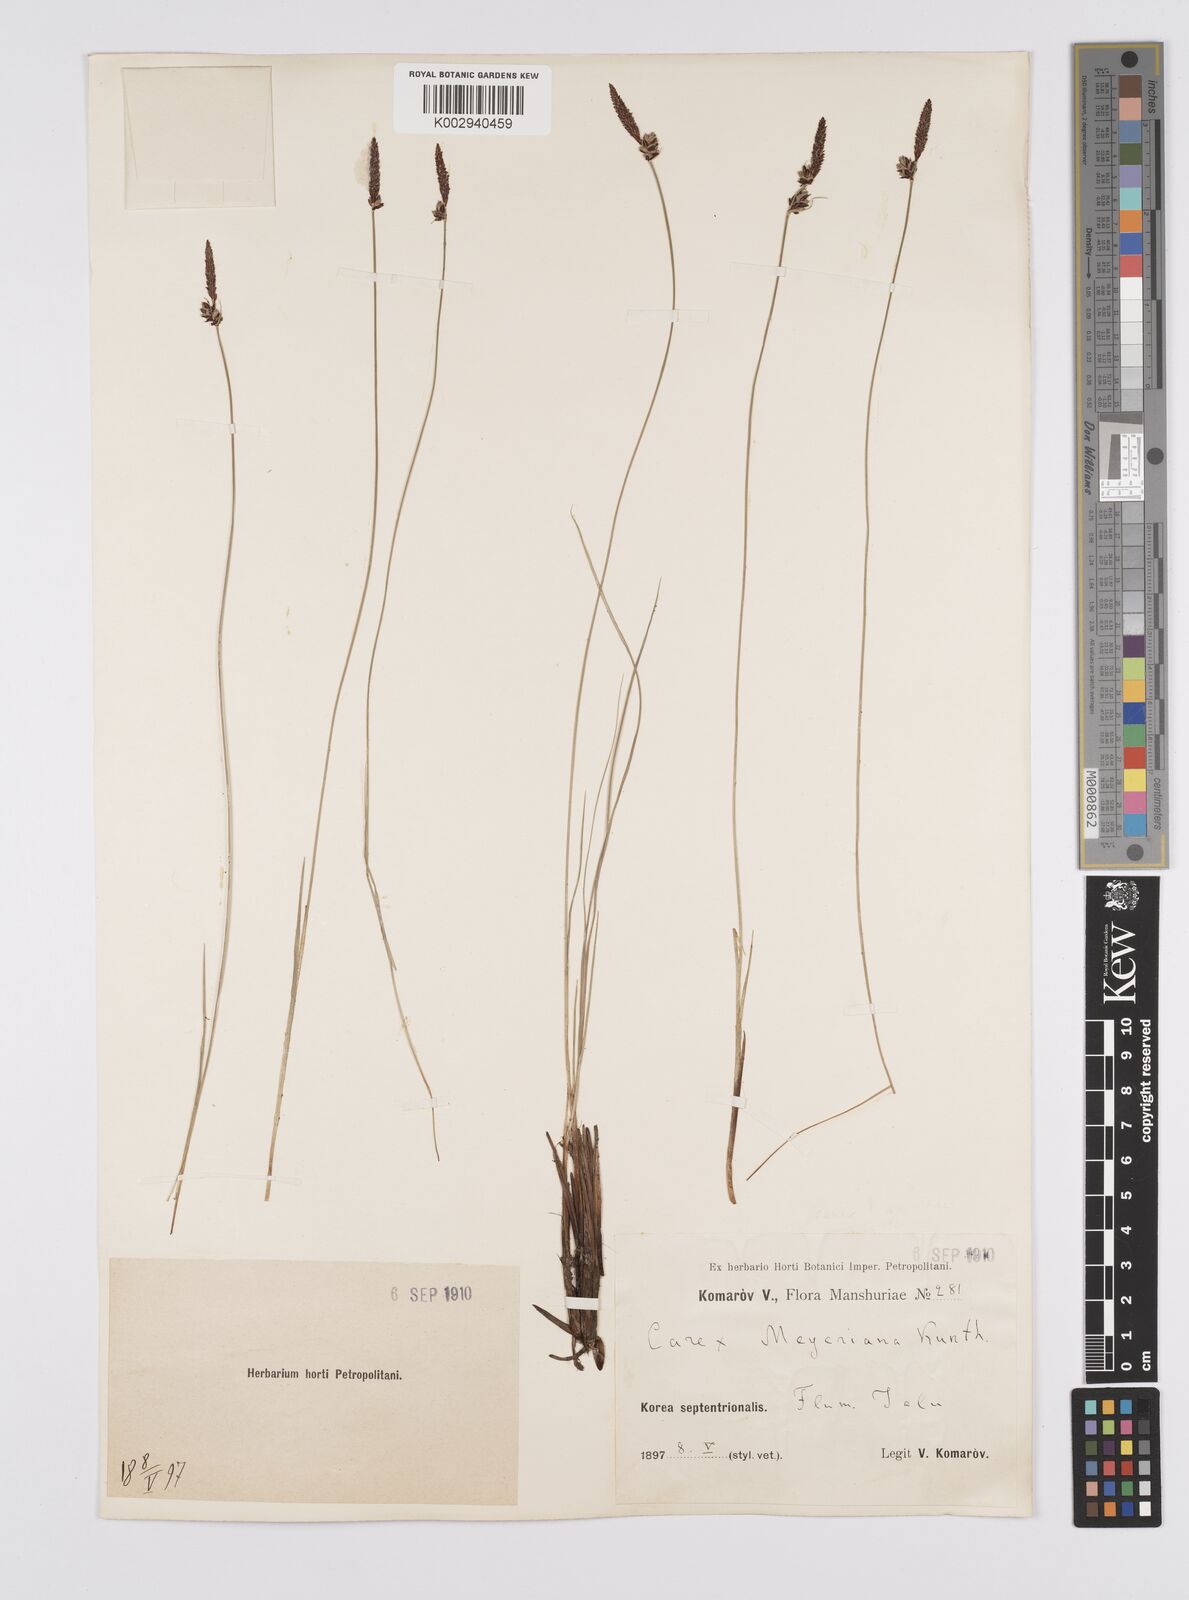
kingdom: Plantae
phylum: Tracheophyta
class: Liliopsida
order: Poales
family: Cyperaceae
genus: Carex
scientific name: Carex meyeriana
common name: Wula sedge
